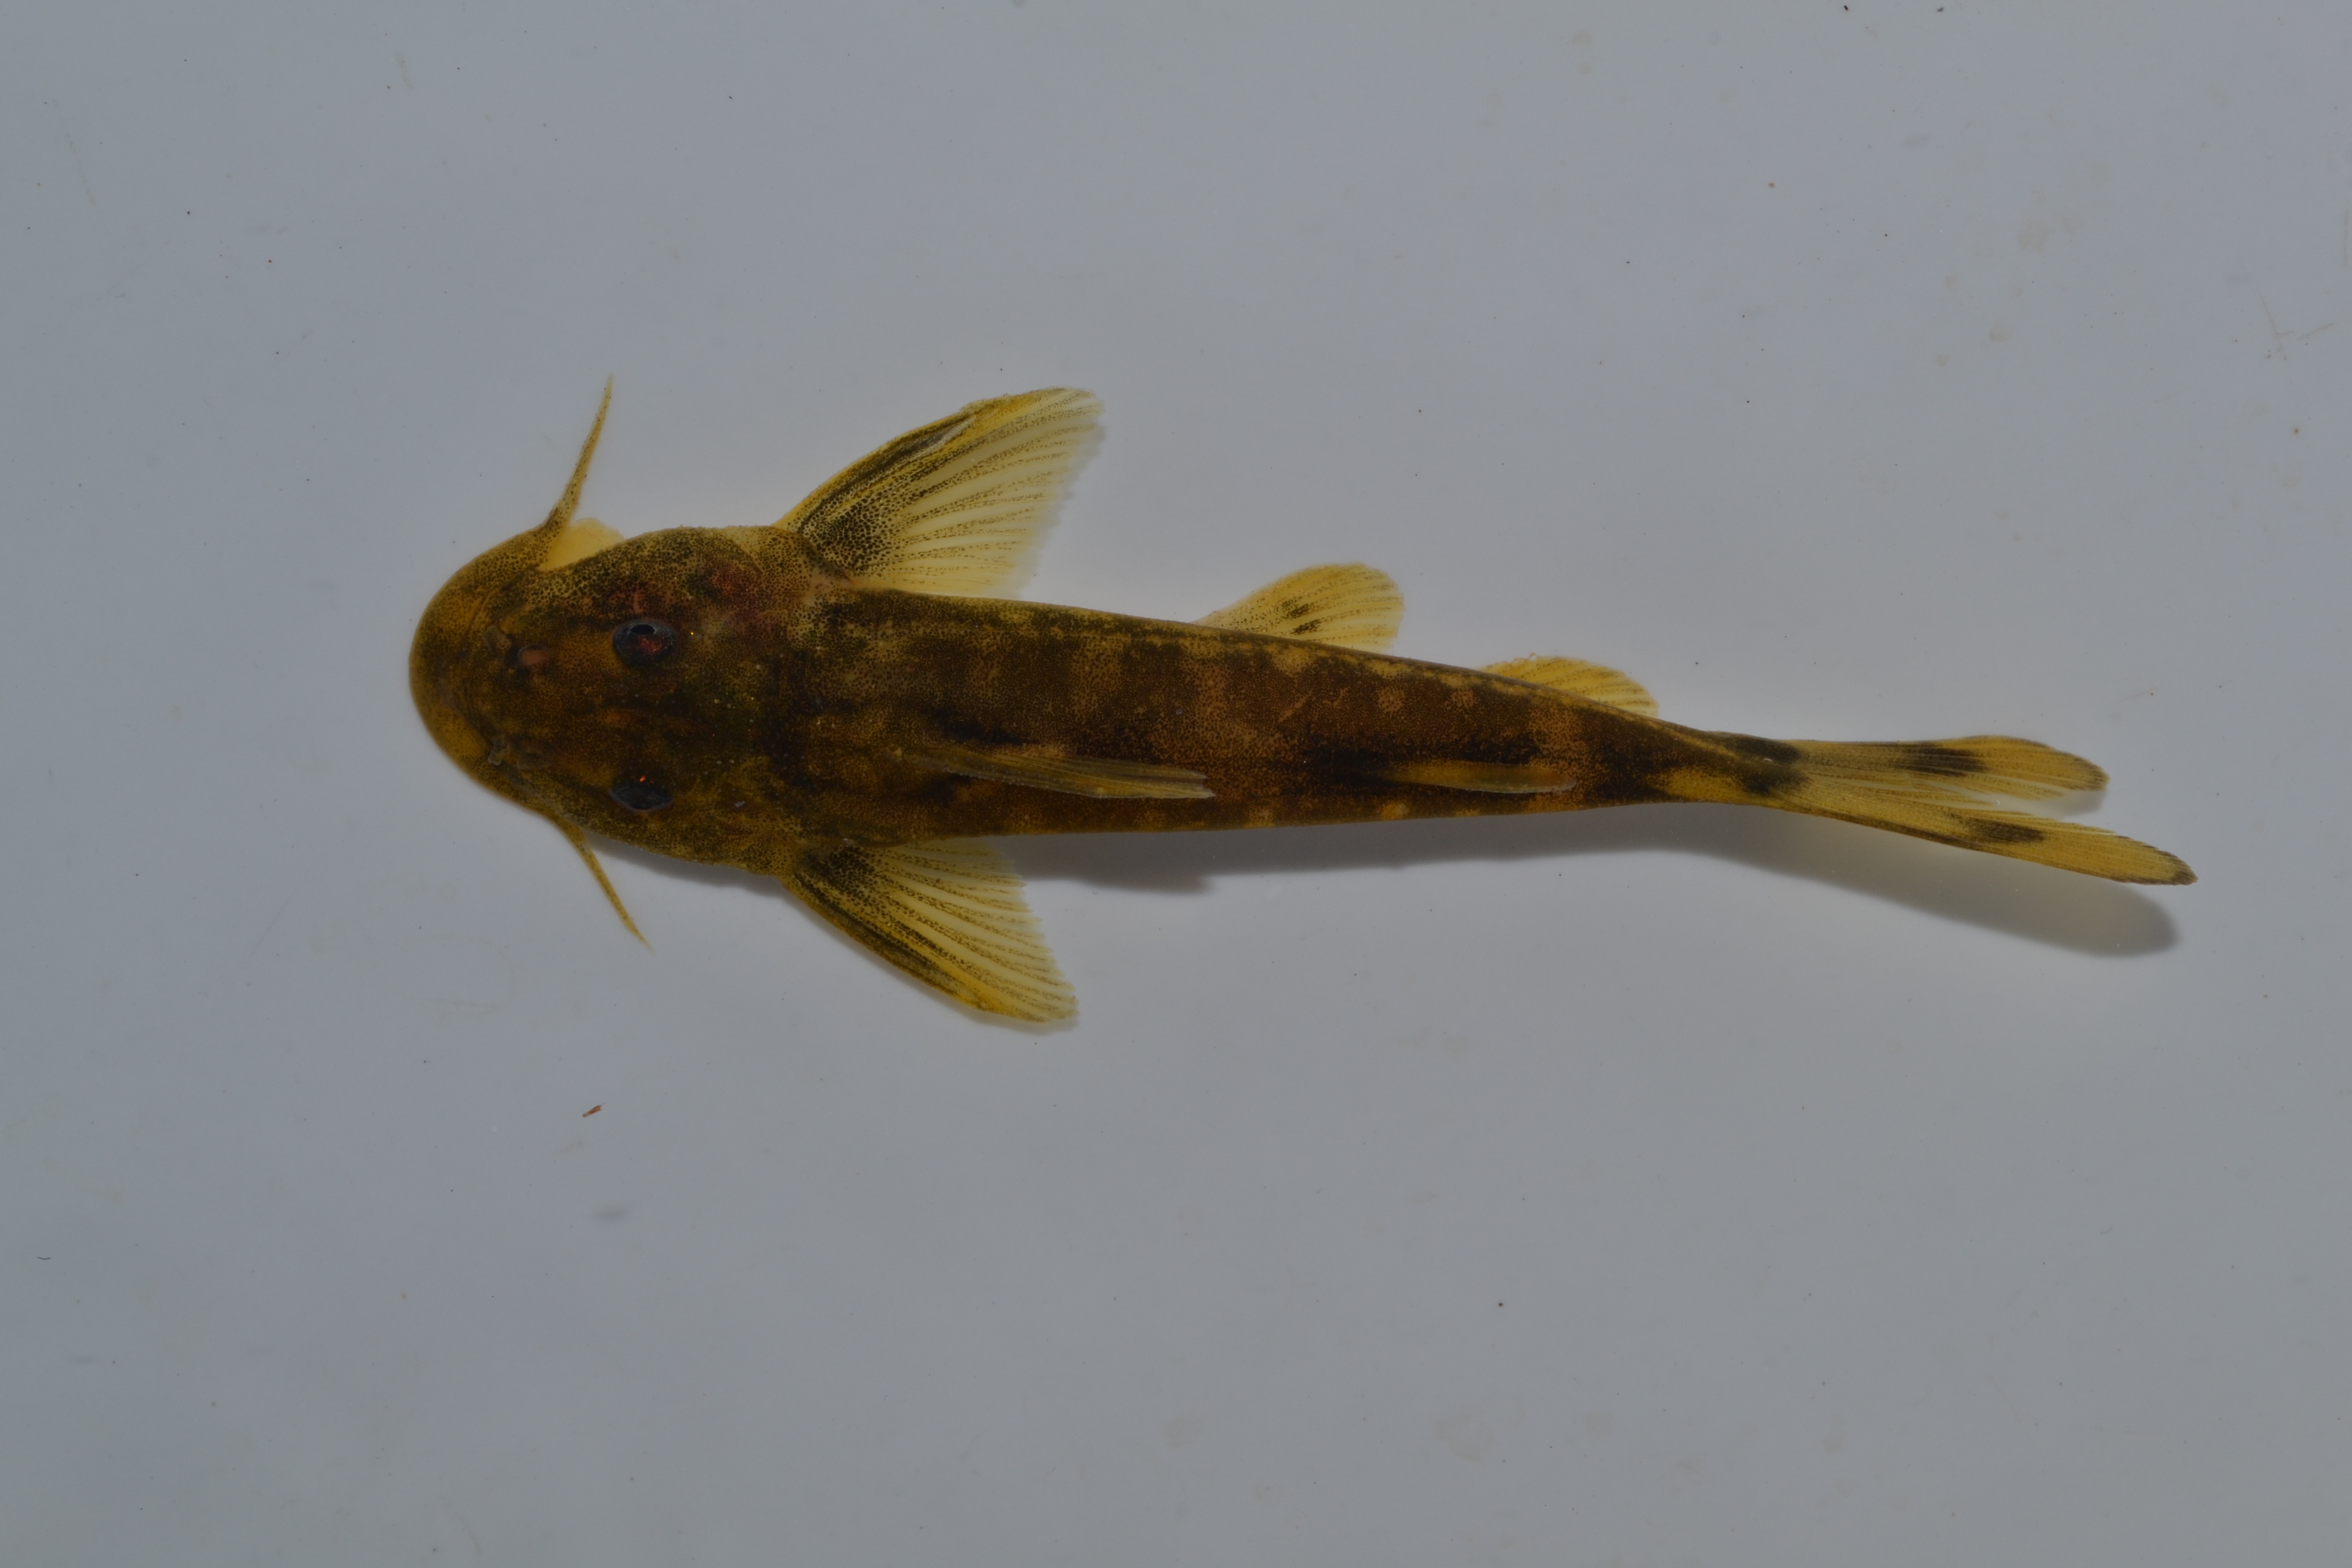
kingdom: Animalia
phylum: Chordata
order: Siluriformes
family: Mochokidae
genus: Chiloglanis
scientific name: Chiloglanis bifurcus
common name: Incomati suckermouth
